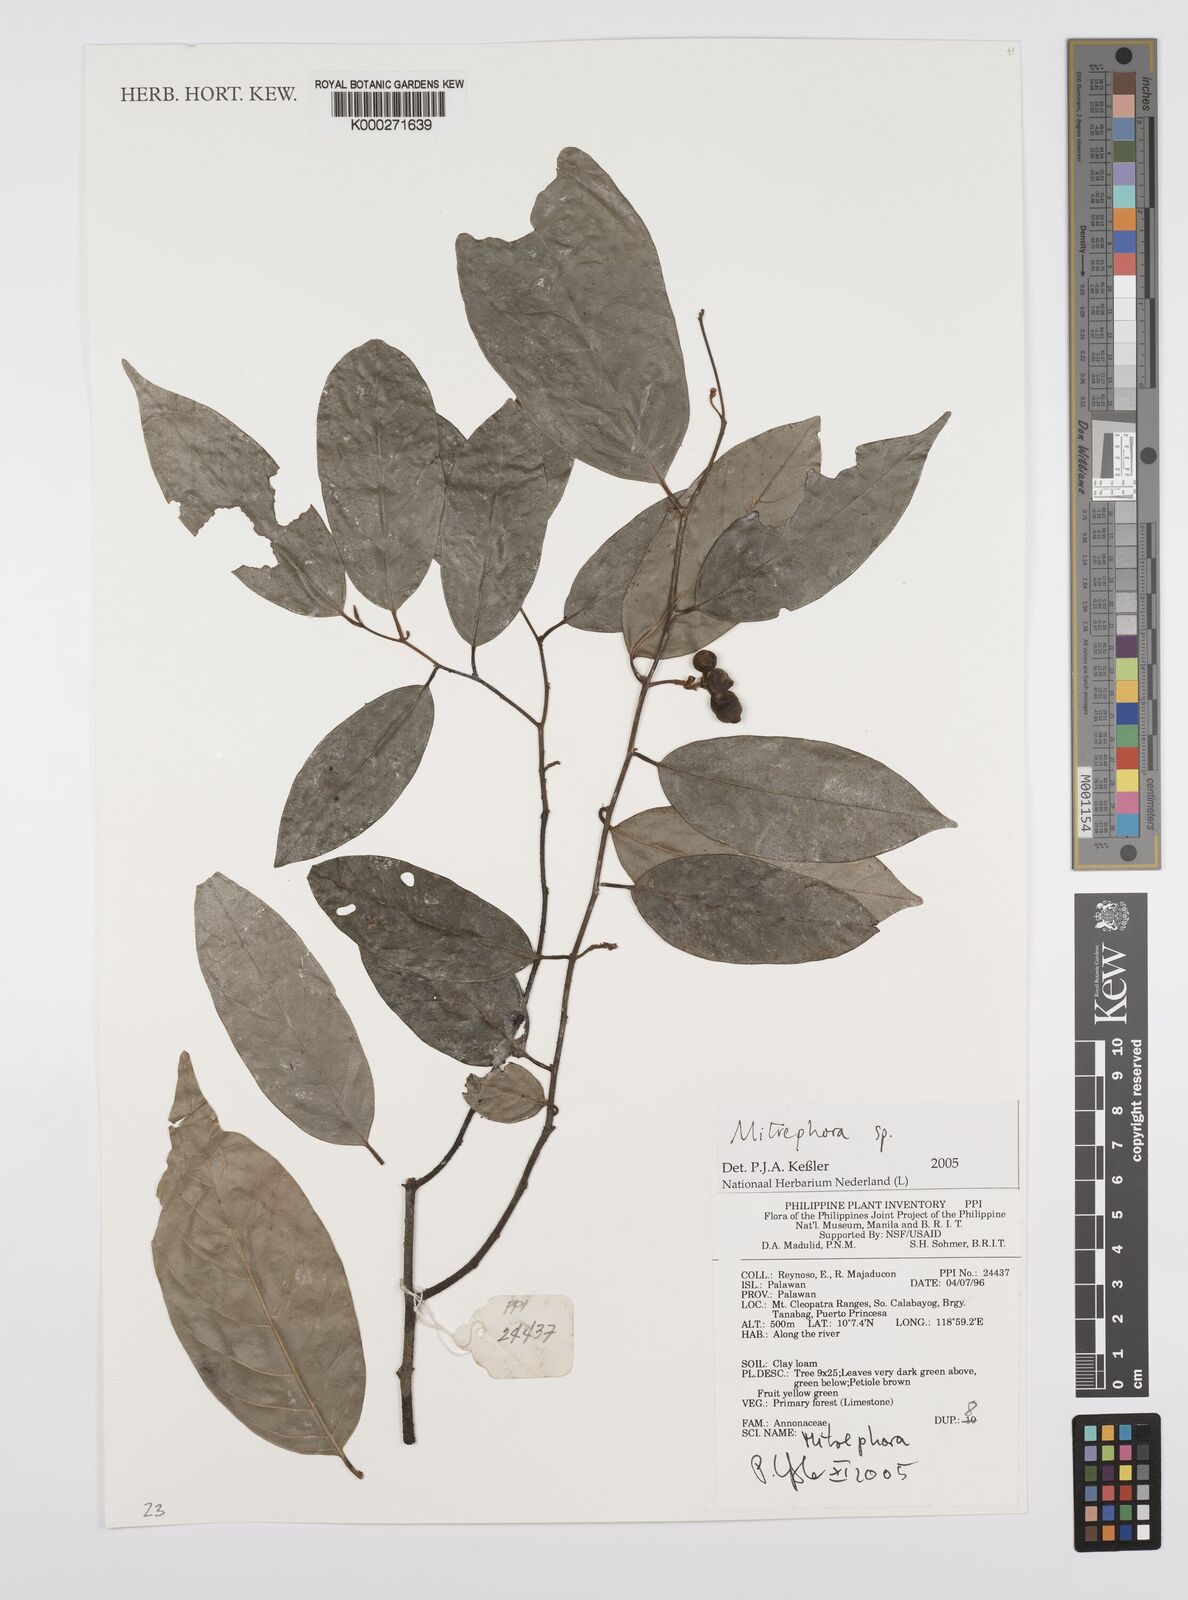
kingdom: Plantae
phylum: Tracheophyta
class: Magnoliopsida
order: Magnoliales
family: Annonaceae
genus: Mitrephora
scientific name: Mitrephora
